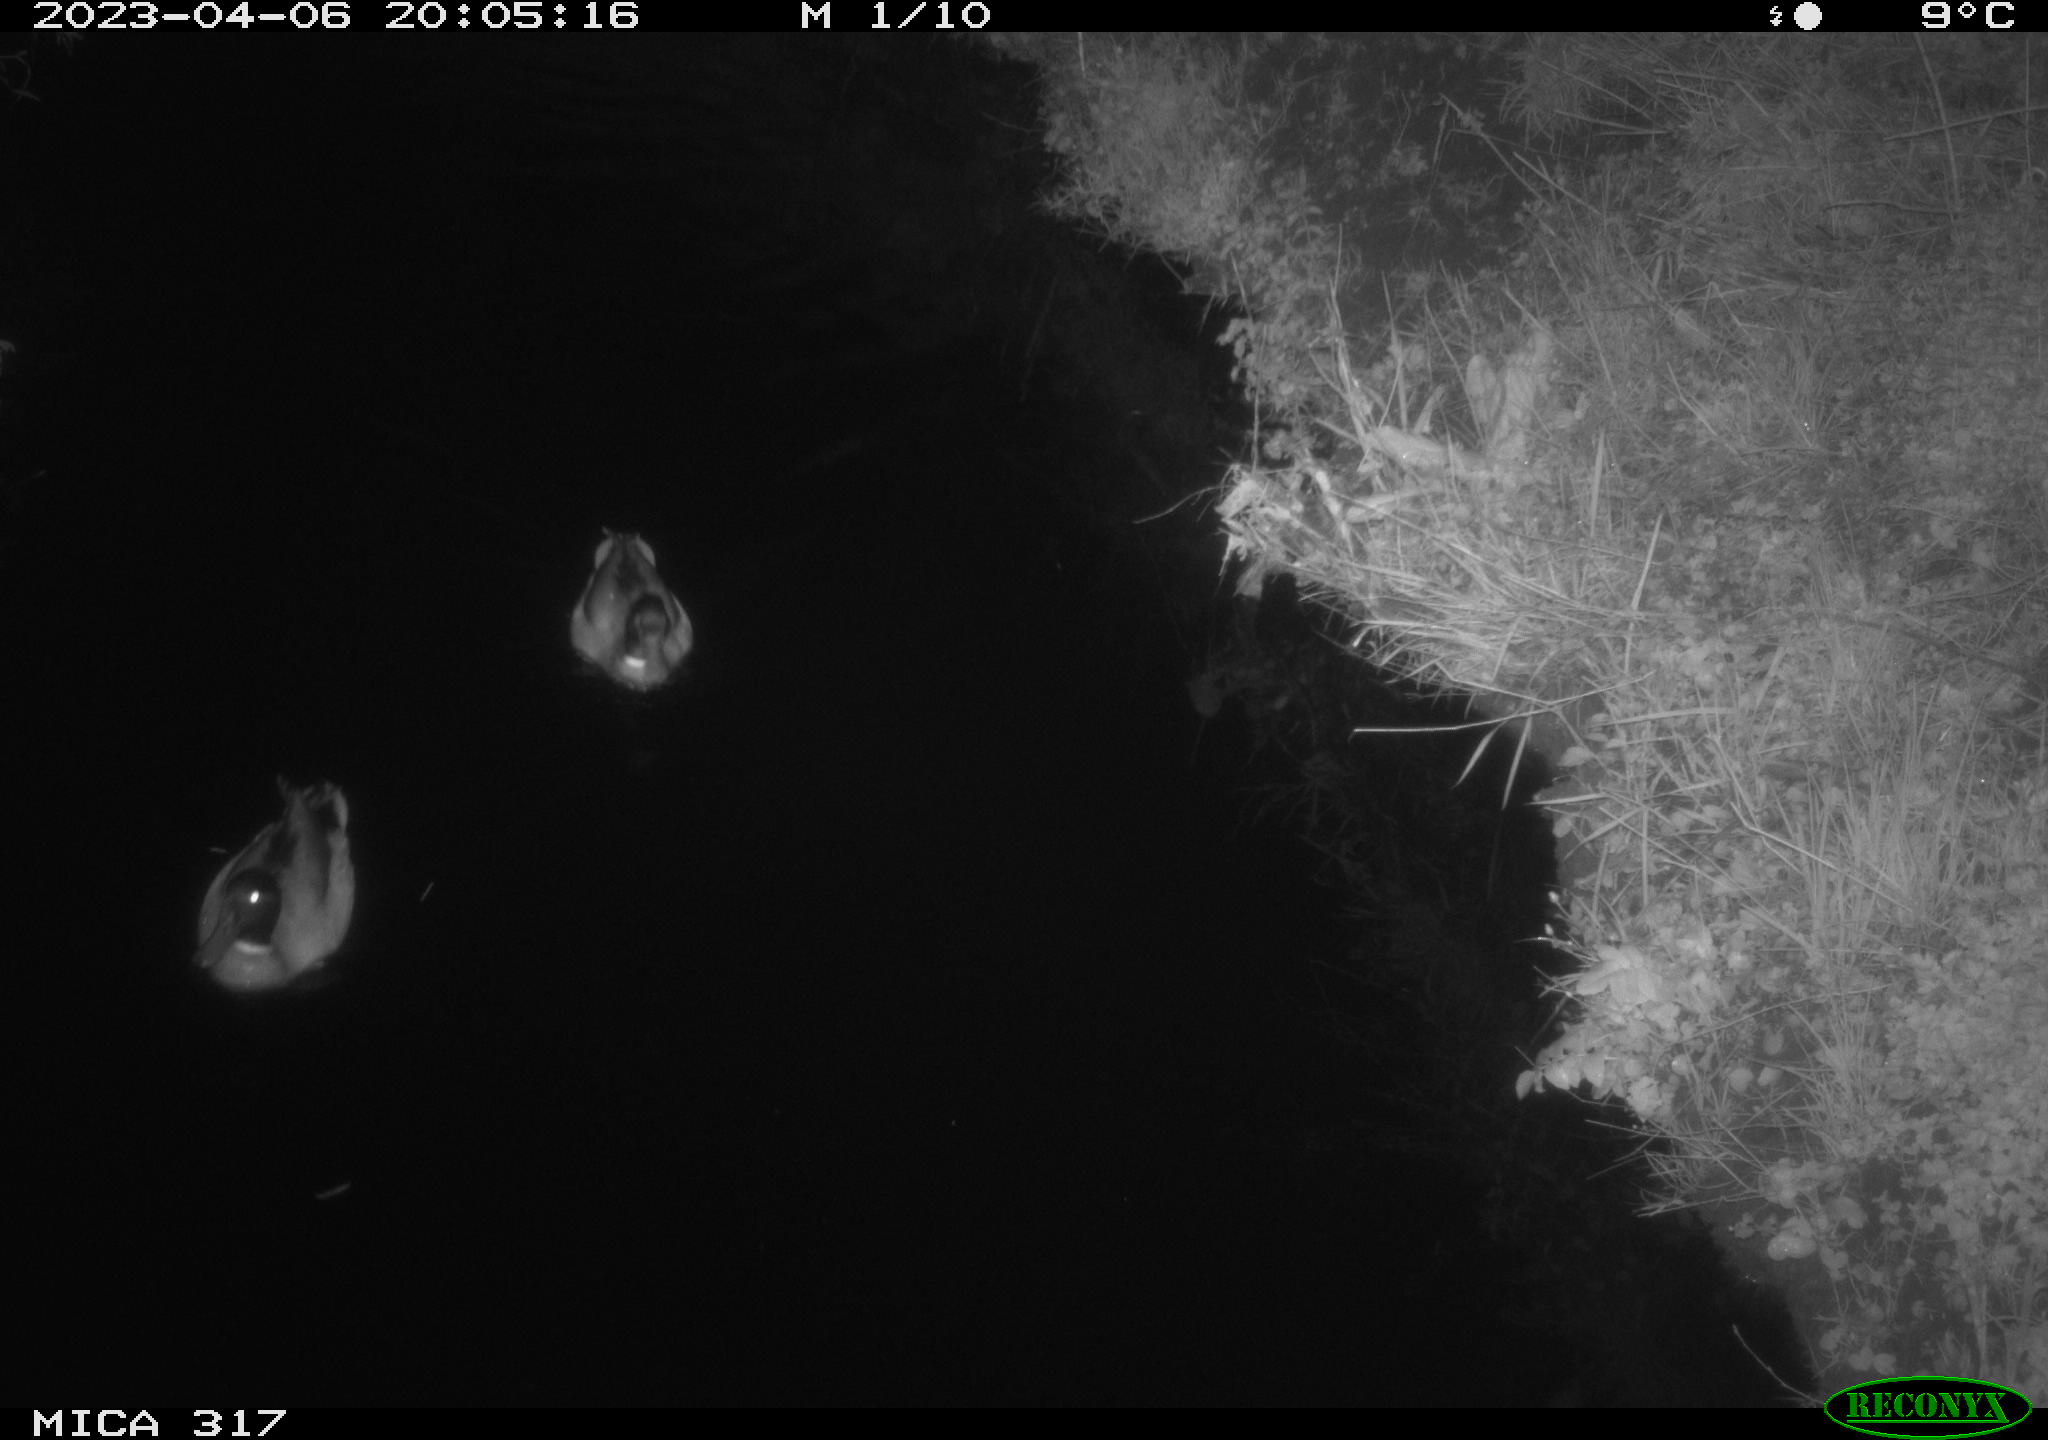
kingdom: Animalia
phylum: Chordata
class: Aves
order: Anseriformes
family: Anatidae
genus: Anas
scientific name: Anas
